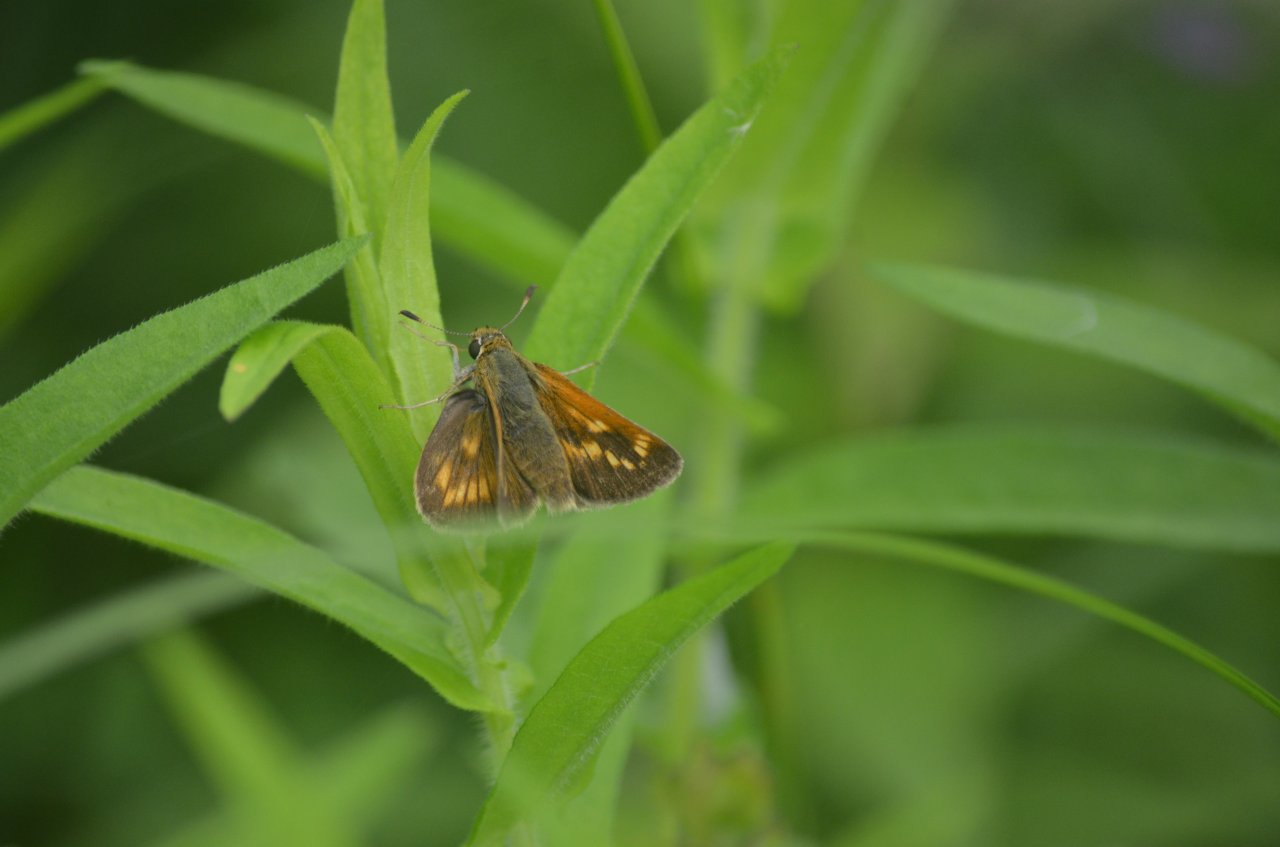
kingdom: Animalia
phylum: Arthropoda
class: Insecta
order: Lepidoptera
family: Hesperiidae
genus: Polites
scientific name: Polites
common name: Long Dash Skipper
